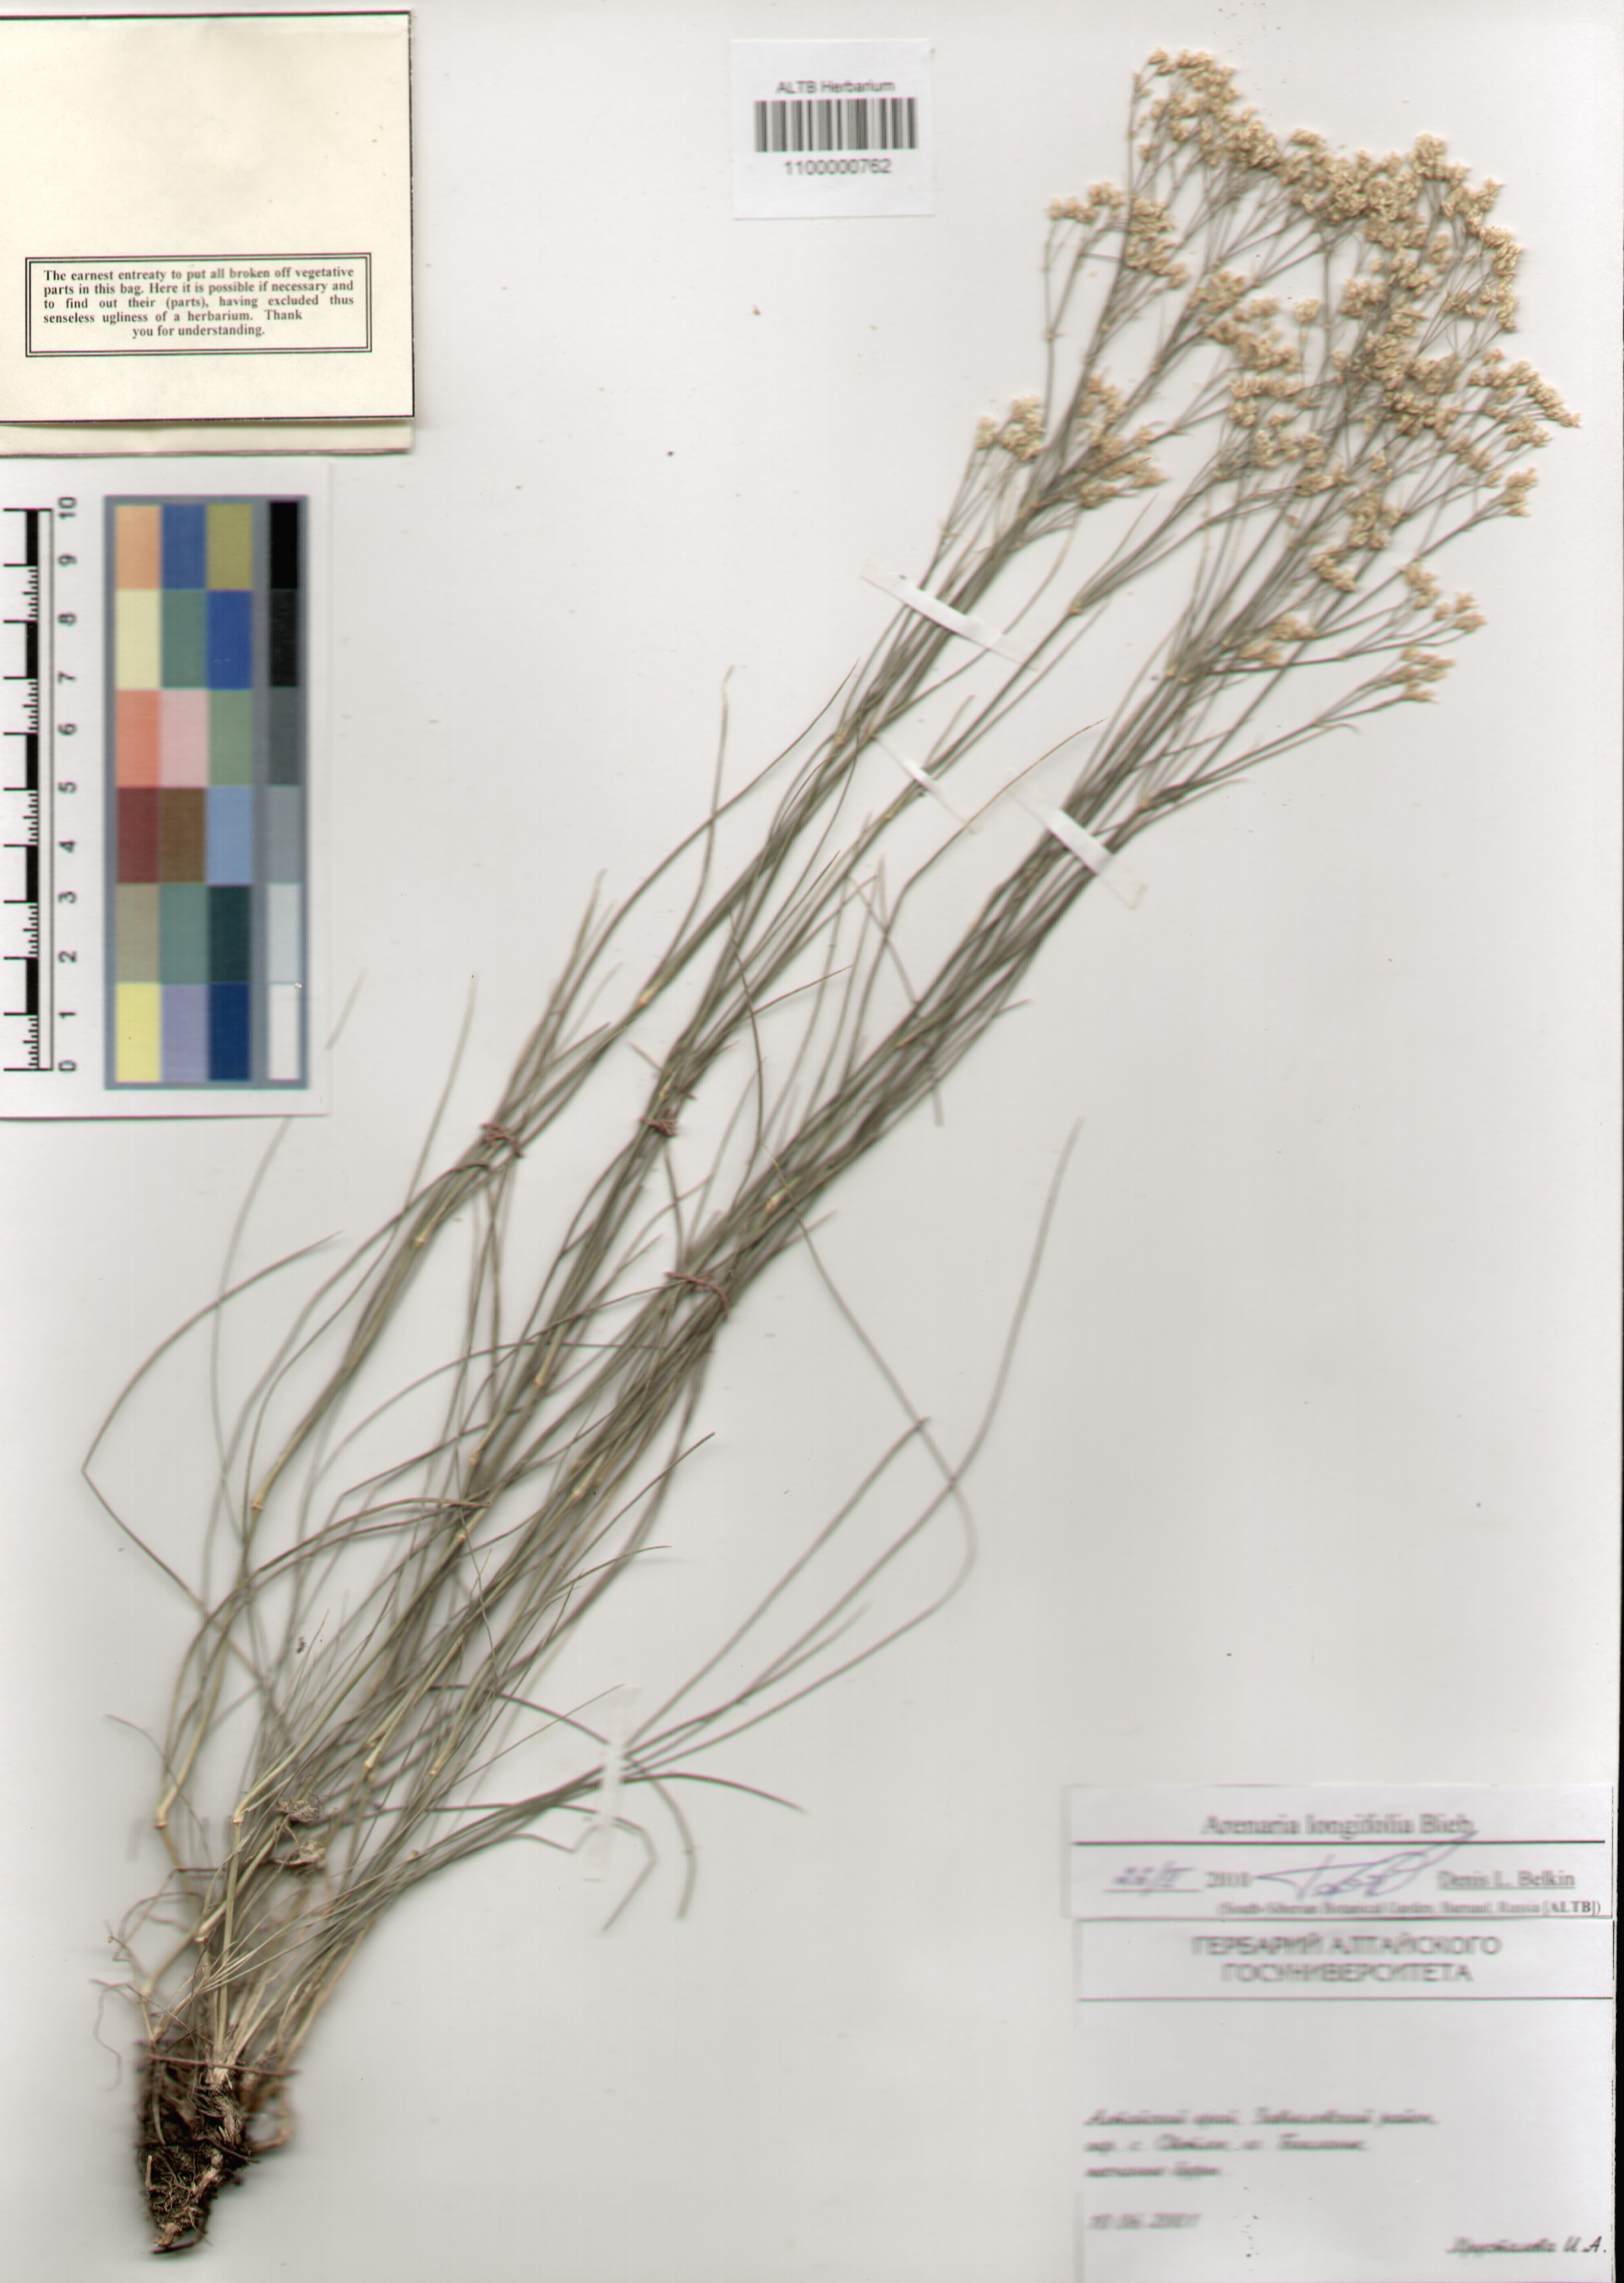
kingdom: Plantae
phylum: Tracheophyta
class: Magnoliopsida
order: Caryophyllales
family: Caryophyllaceae
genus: Eremogone
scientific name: Eremogone longifolia
